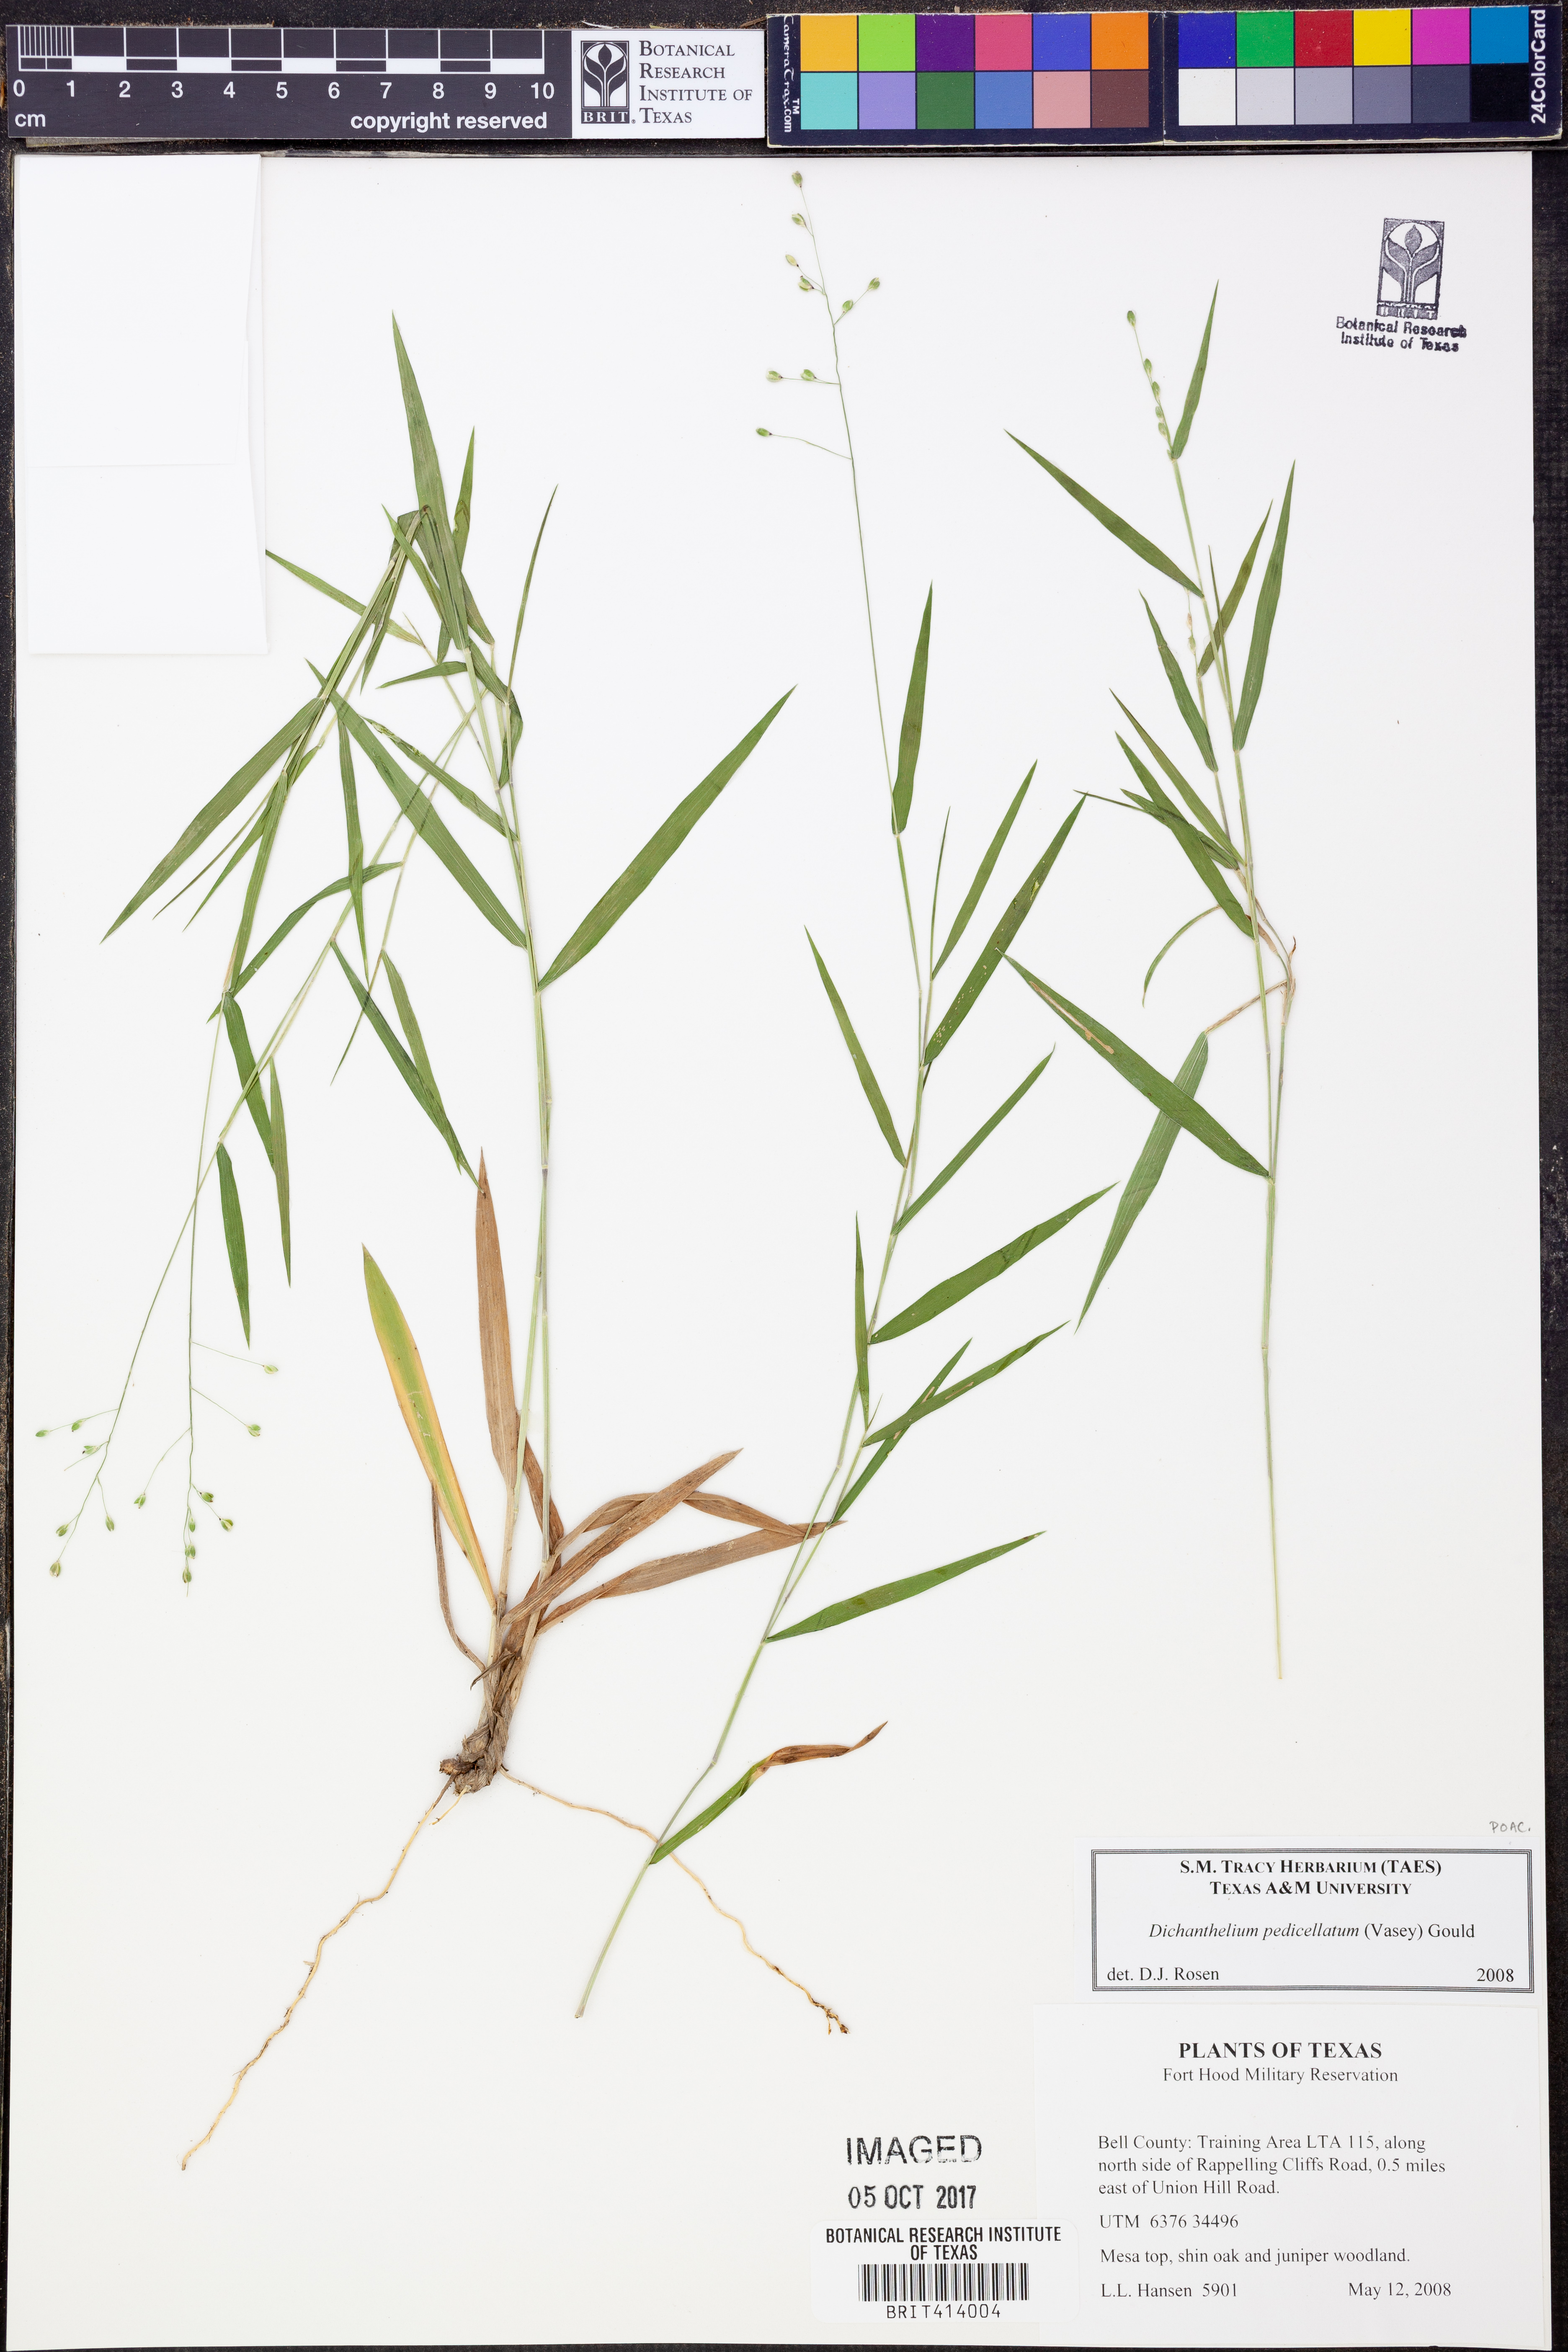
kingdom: Plantae
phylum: Tracheophyta
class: Liliopsida
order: Poales
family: Poaceae
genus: Dichanthelium
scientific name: Dichanthelium transiens
